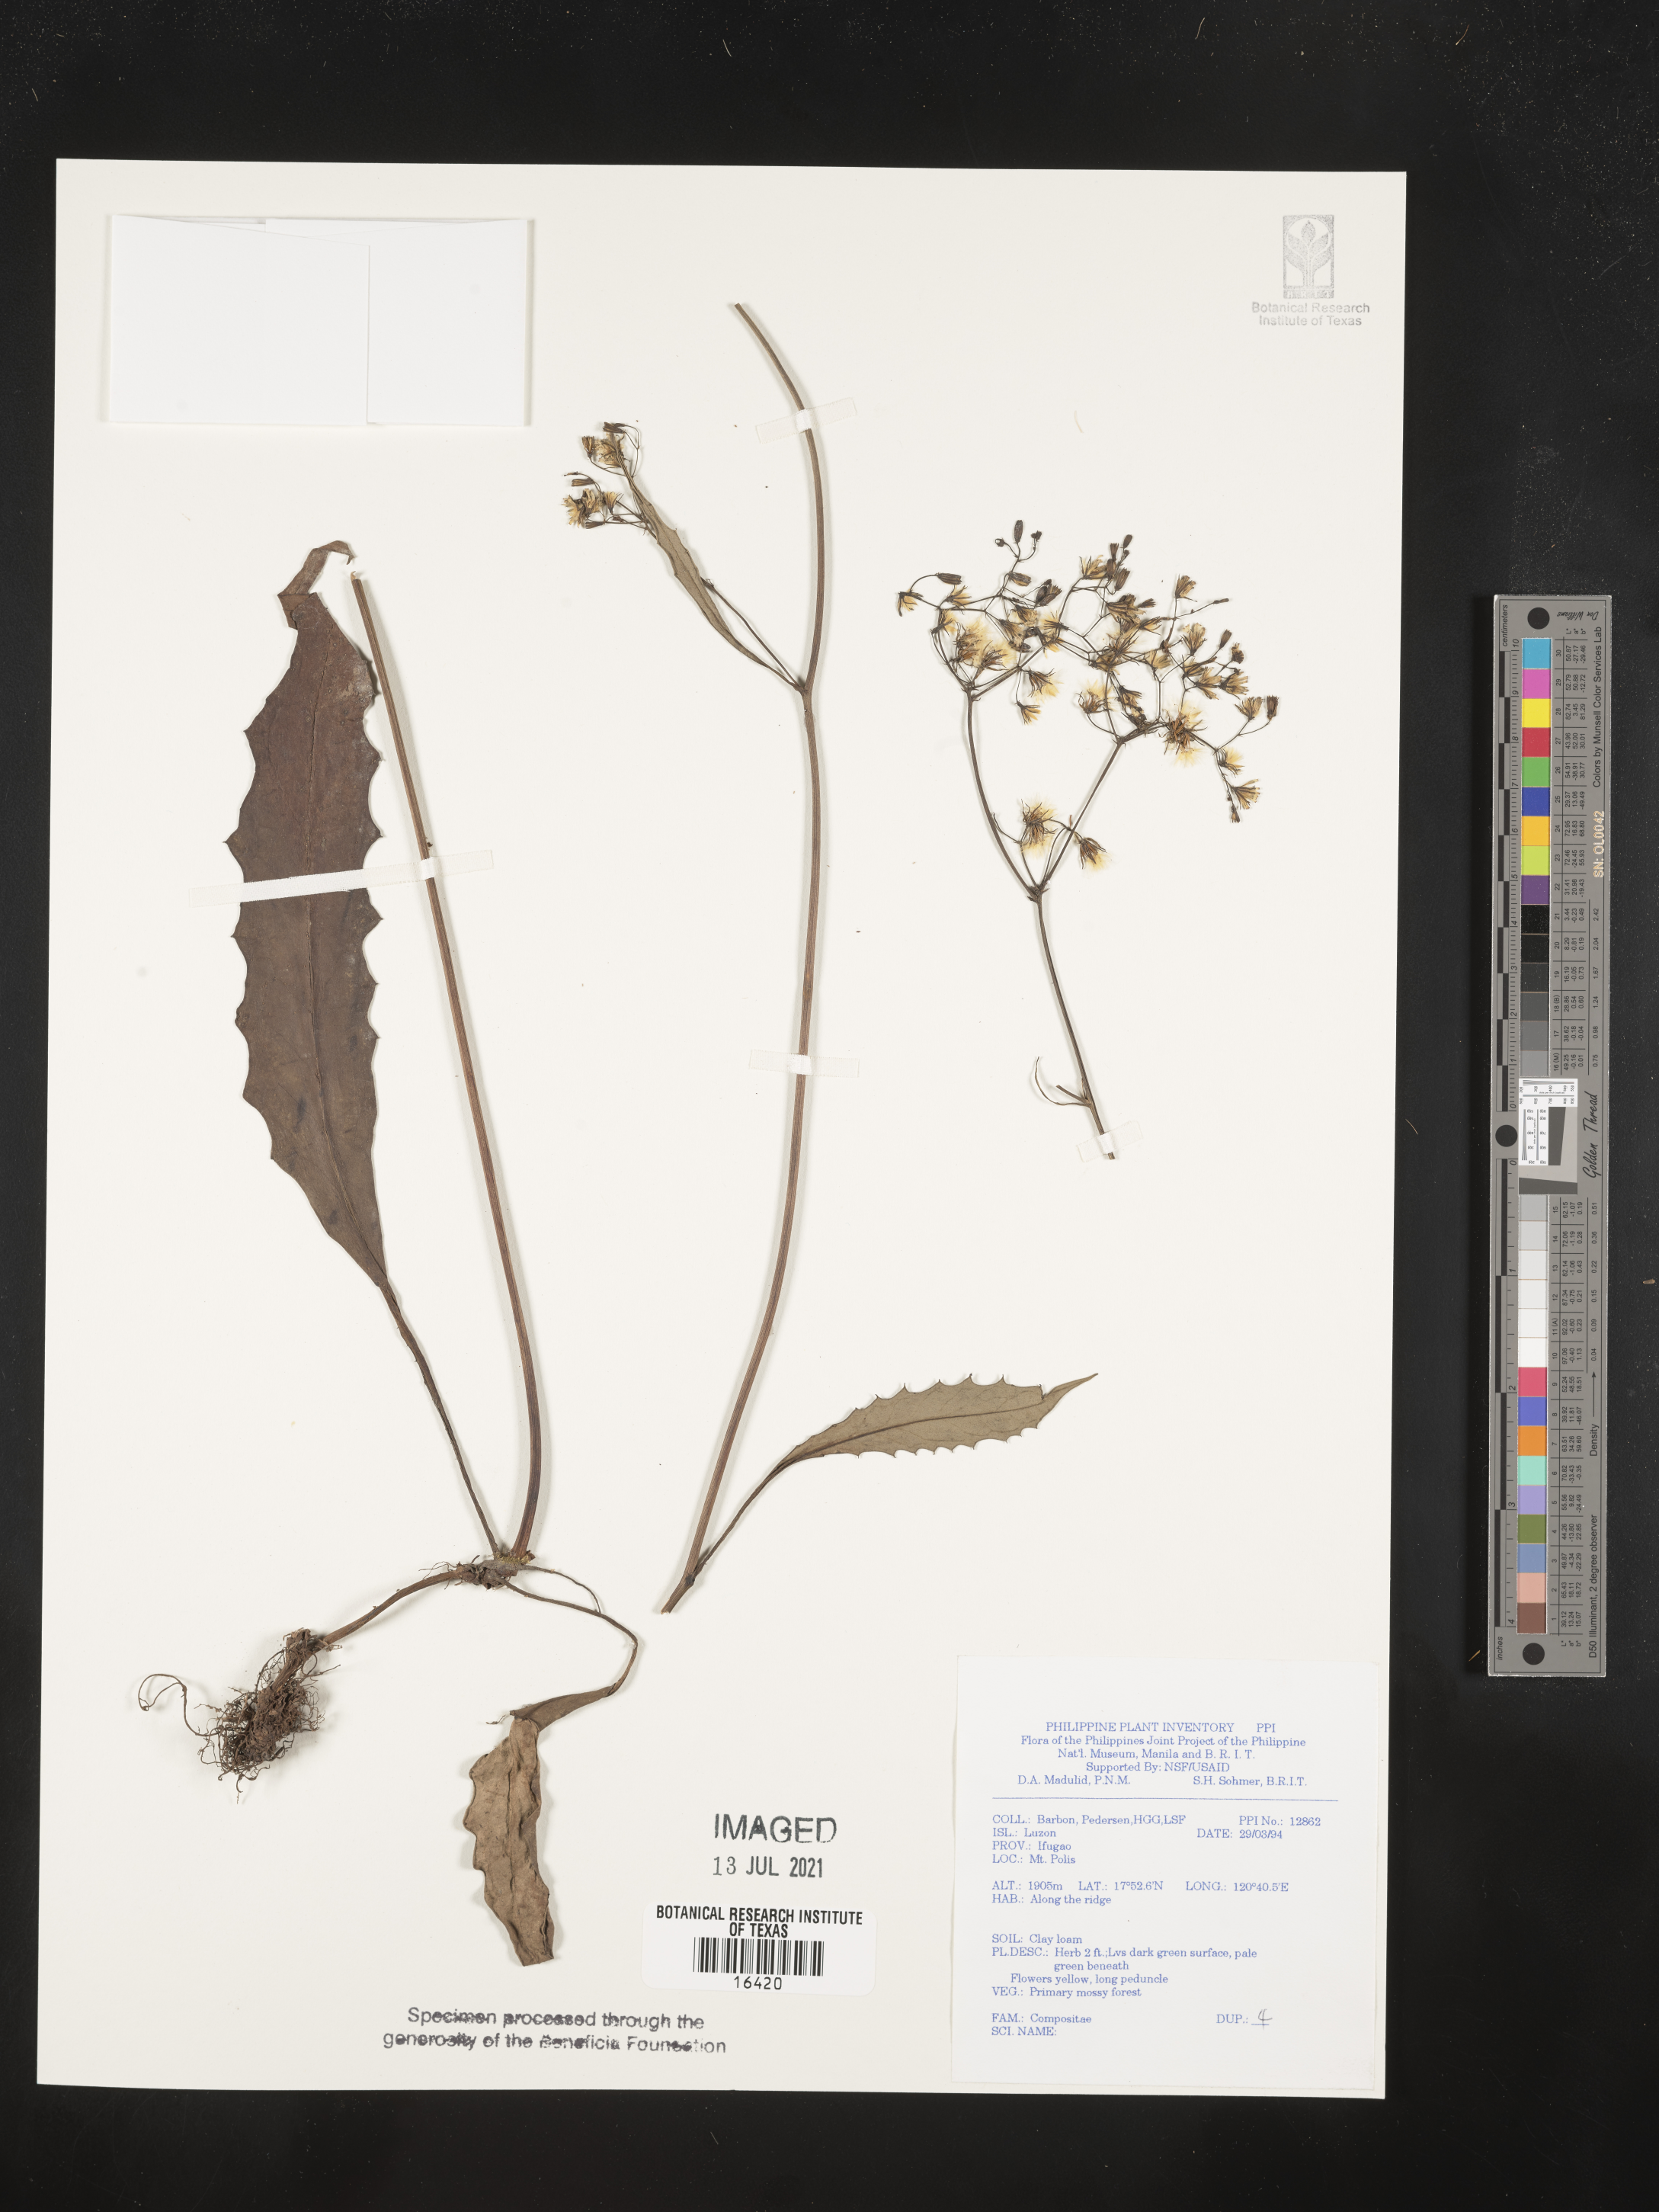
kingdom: Plantae
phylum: Tracheophyta
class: Magnoliopsida
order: Asterales
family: Asteraceae
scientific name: Asteraceae
